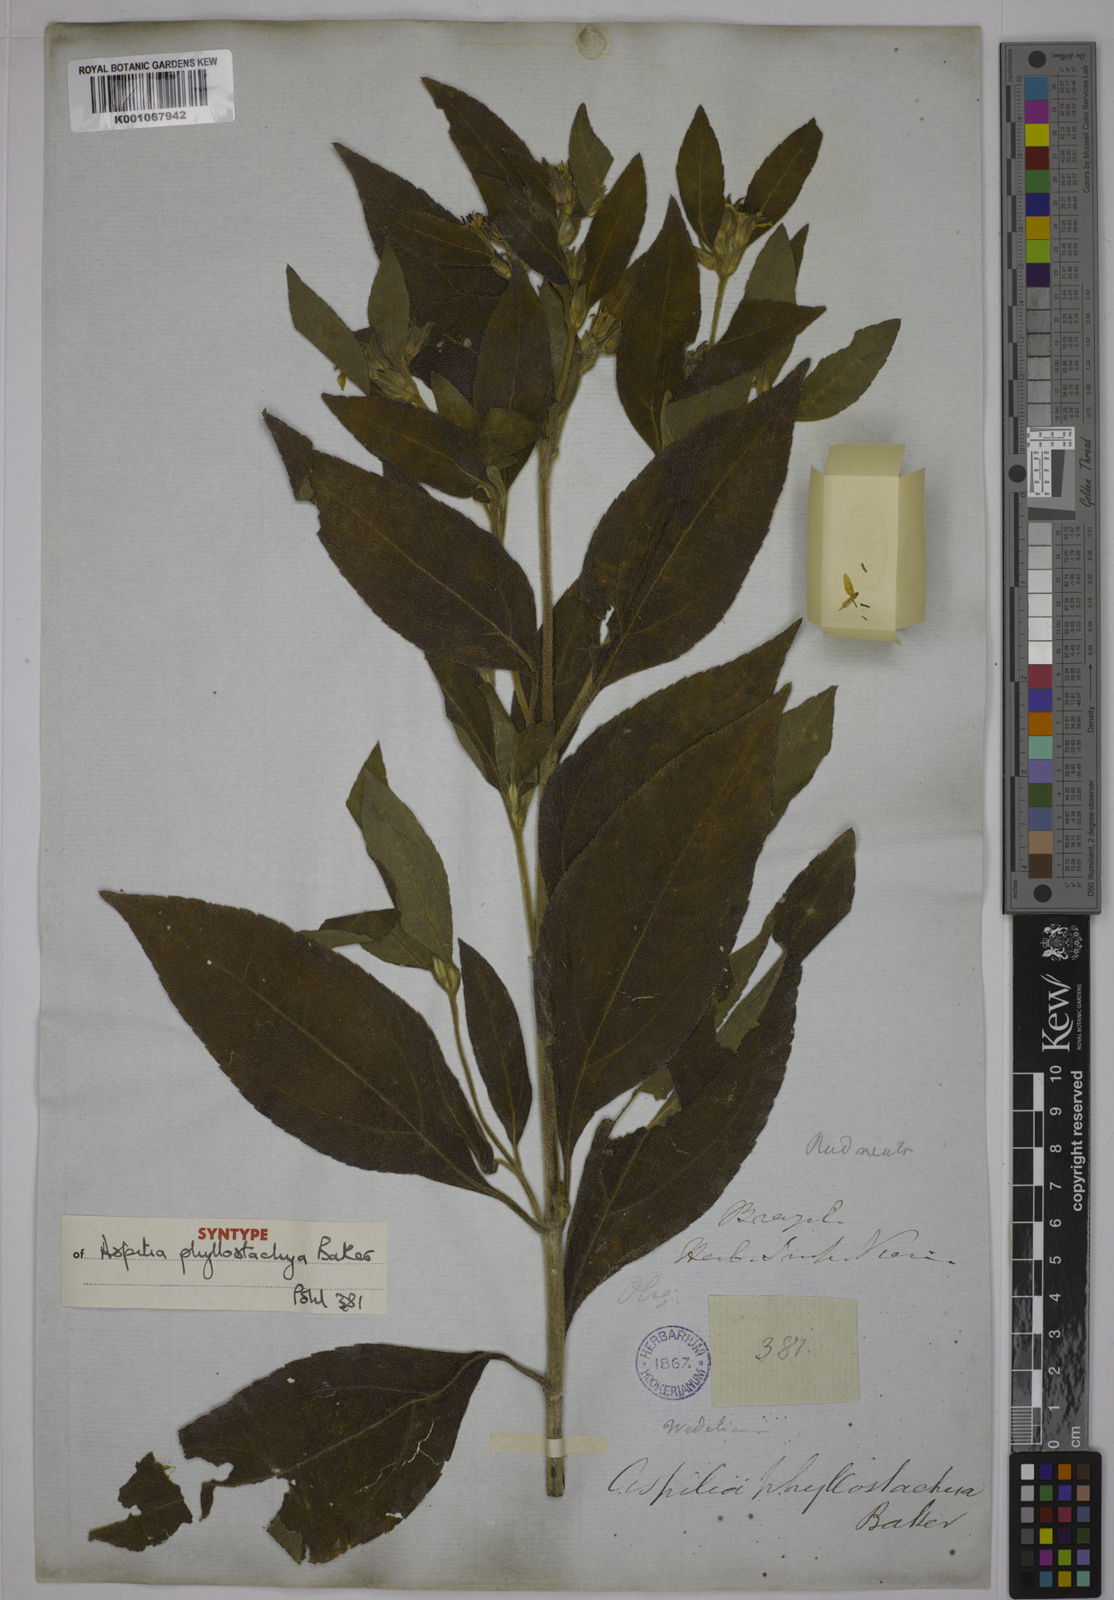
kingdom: Plantae
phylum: Tracheophyta
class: Magnoliopsida
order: Asterales
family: Asteraceae
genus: Wedelia
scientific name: Wedelia phyllostachya
